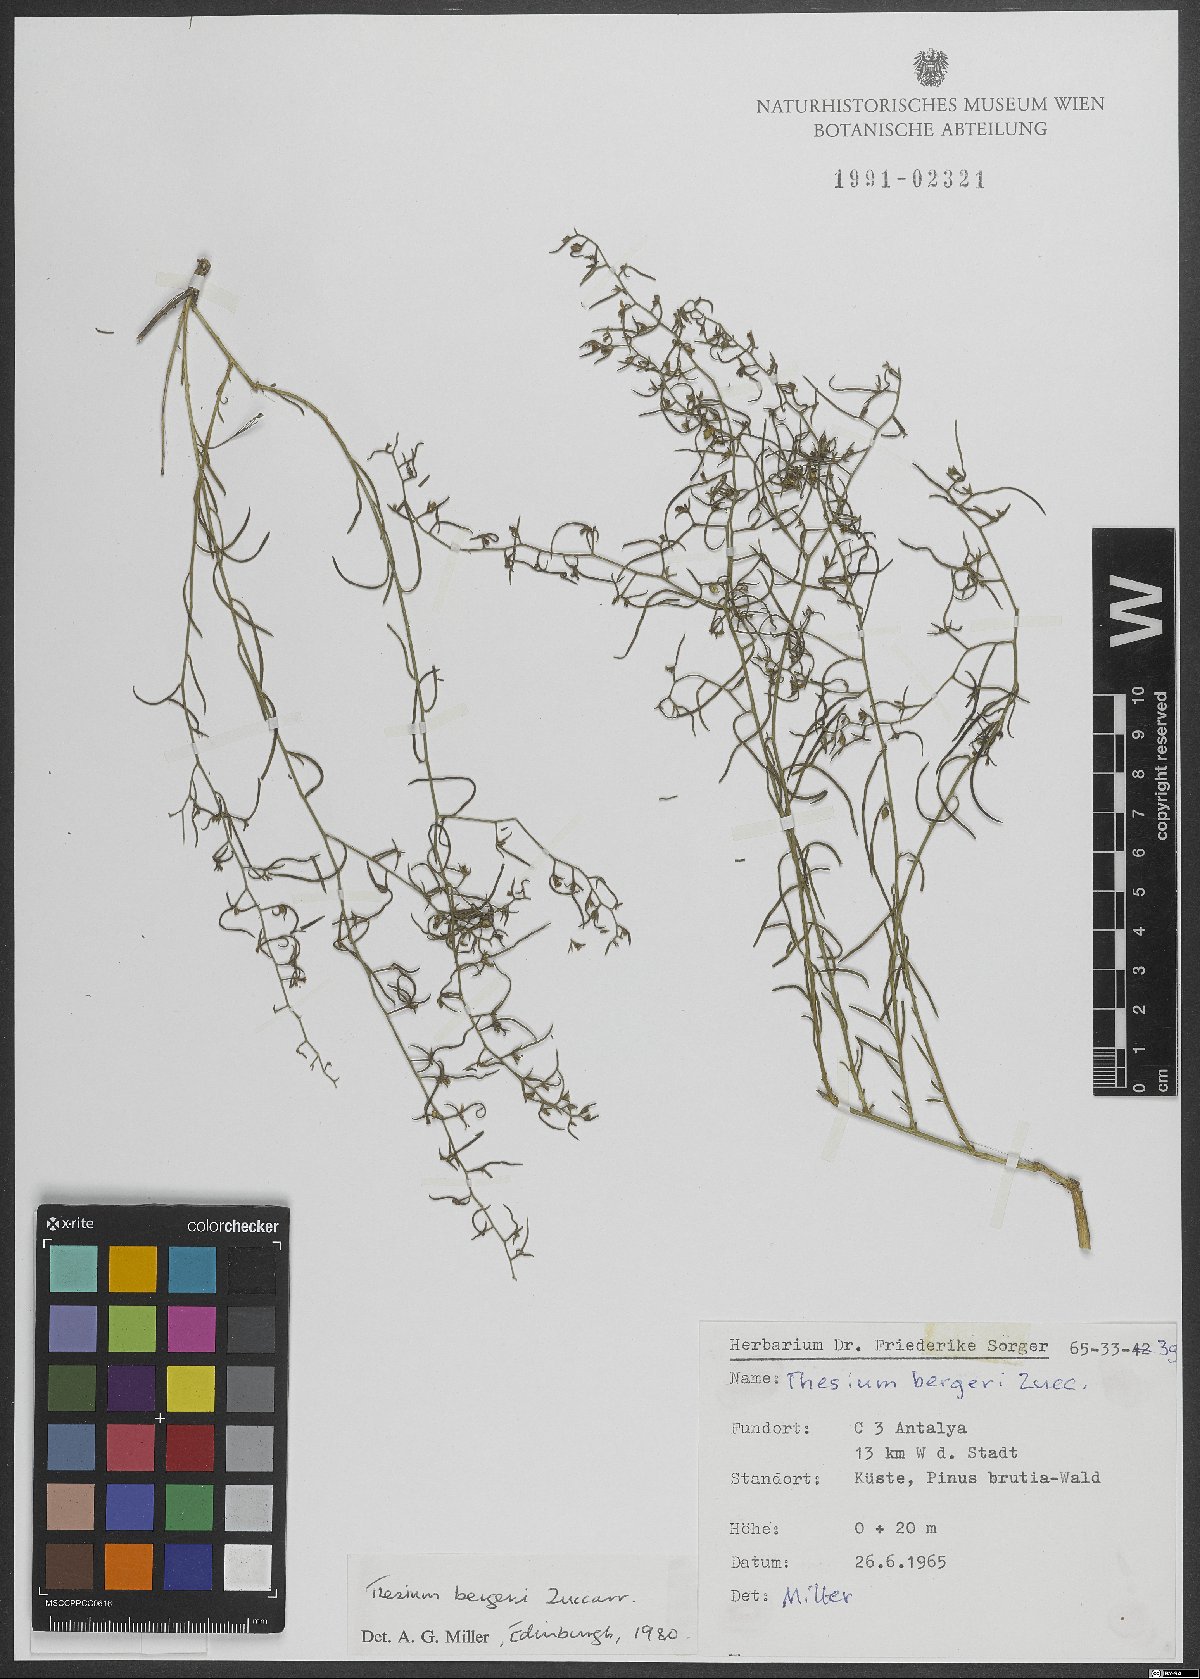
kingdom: Plantae
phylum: Tracheophyta
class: Magnoliopsida
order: Santalales
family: Thesiaceae
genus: Thesium
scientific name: Thesium bergeri
